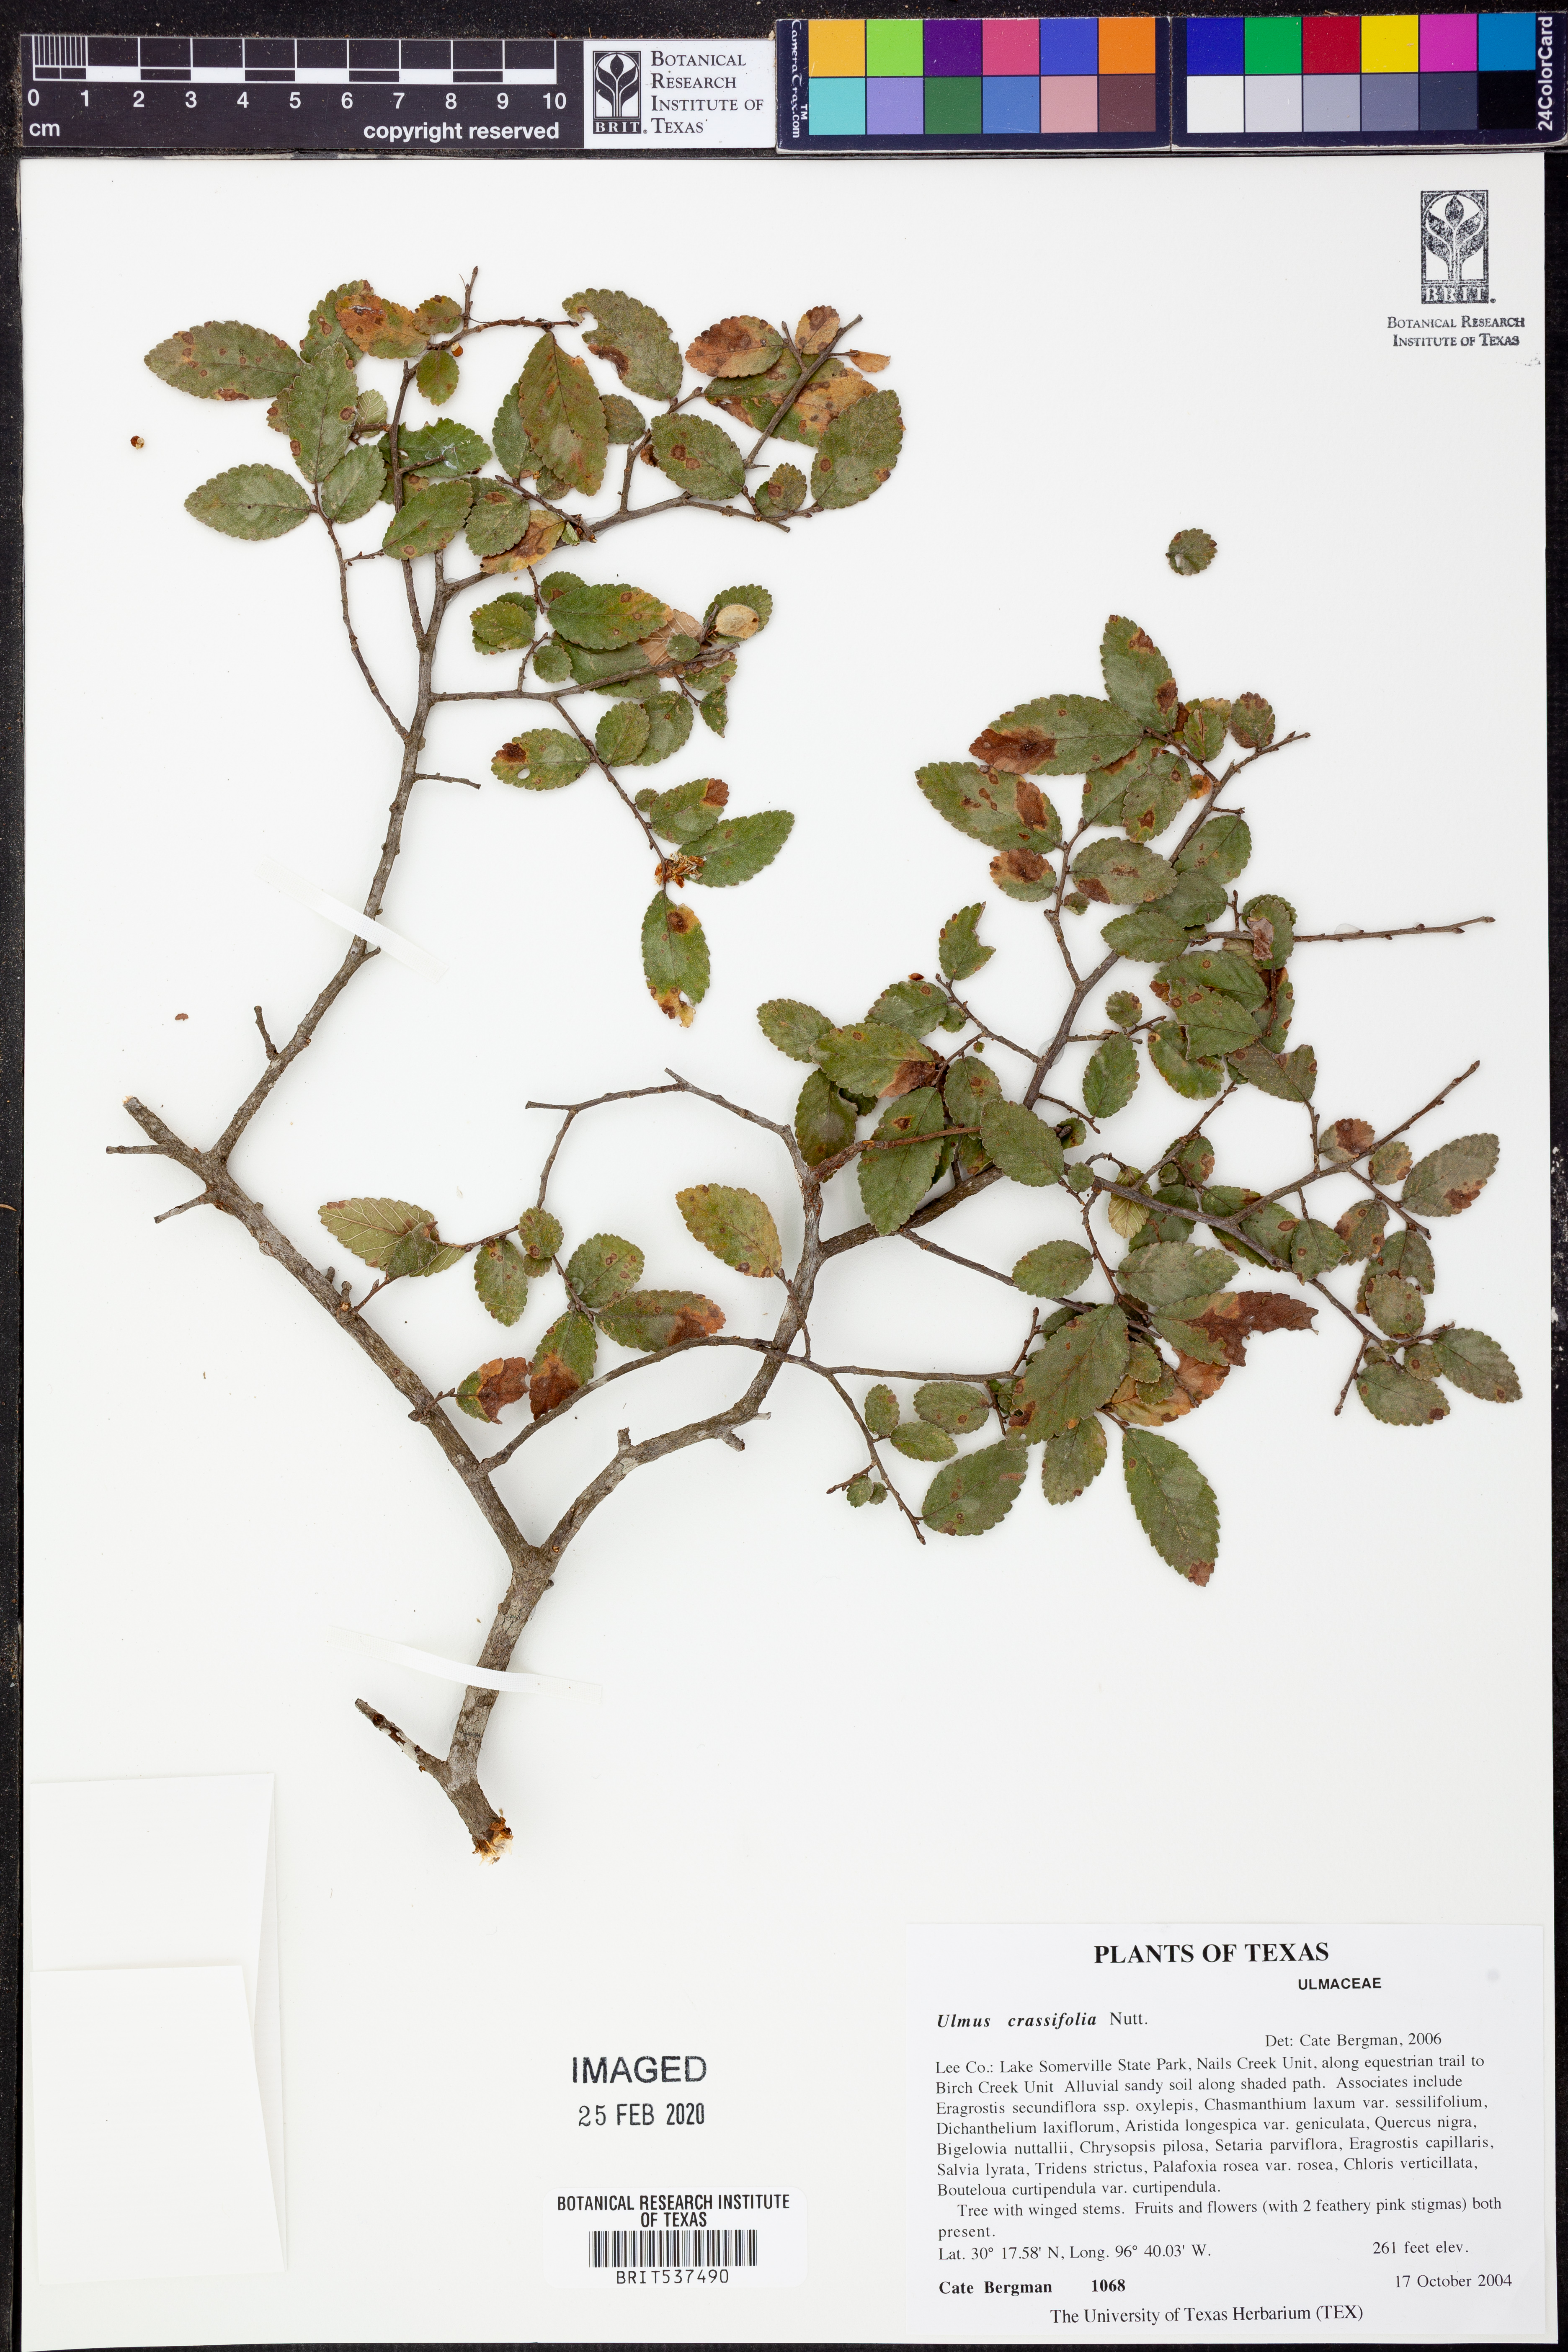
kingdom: Plantae
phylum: Tracheophyta
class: Magnoliopsida
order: Rosales
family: Ulmaceae
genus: Ulmus
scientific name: Ulmus crassifolia
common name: Basket elm
